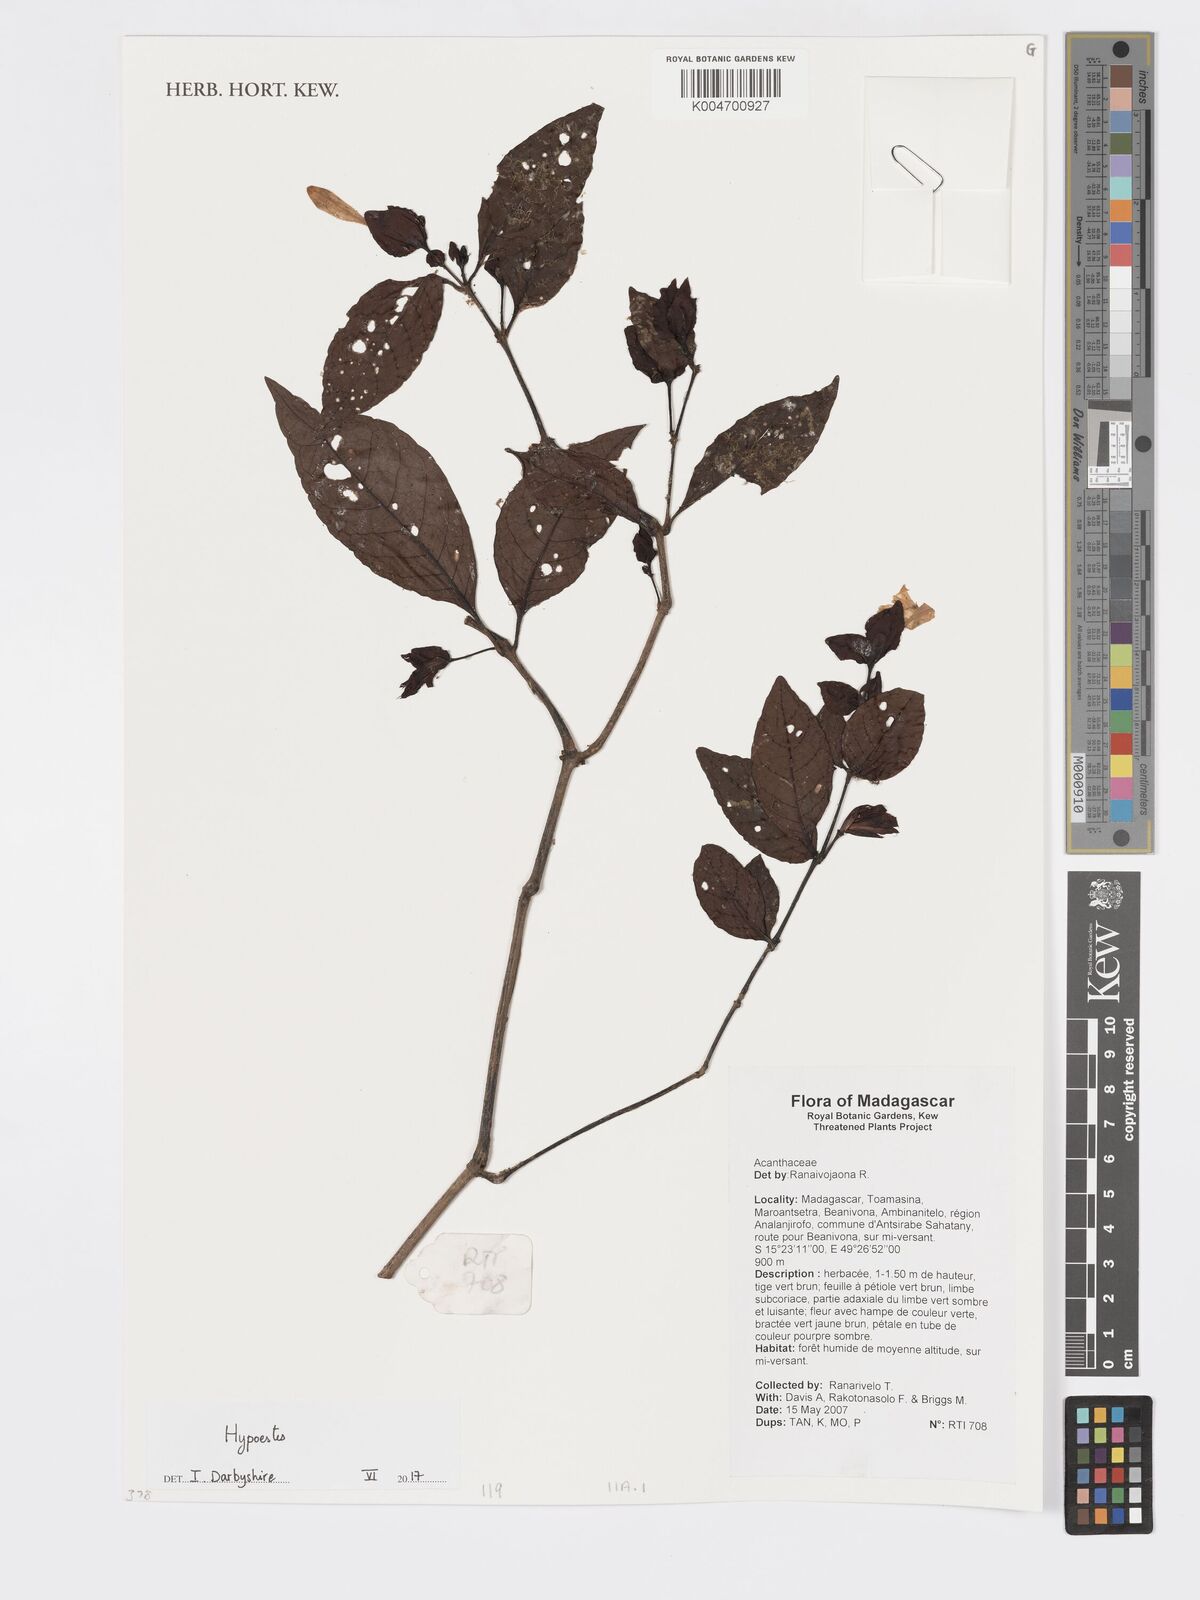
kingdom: Plantae
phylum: Tracheophyta
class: Magnoliopsida
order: Lamiales
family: Acanthaceae
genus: Hypoestes
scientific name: Hypoestes
